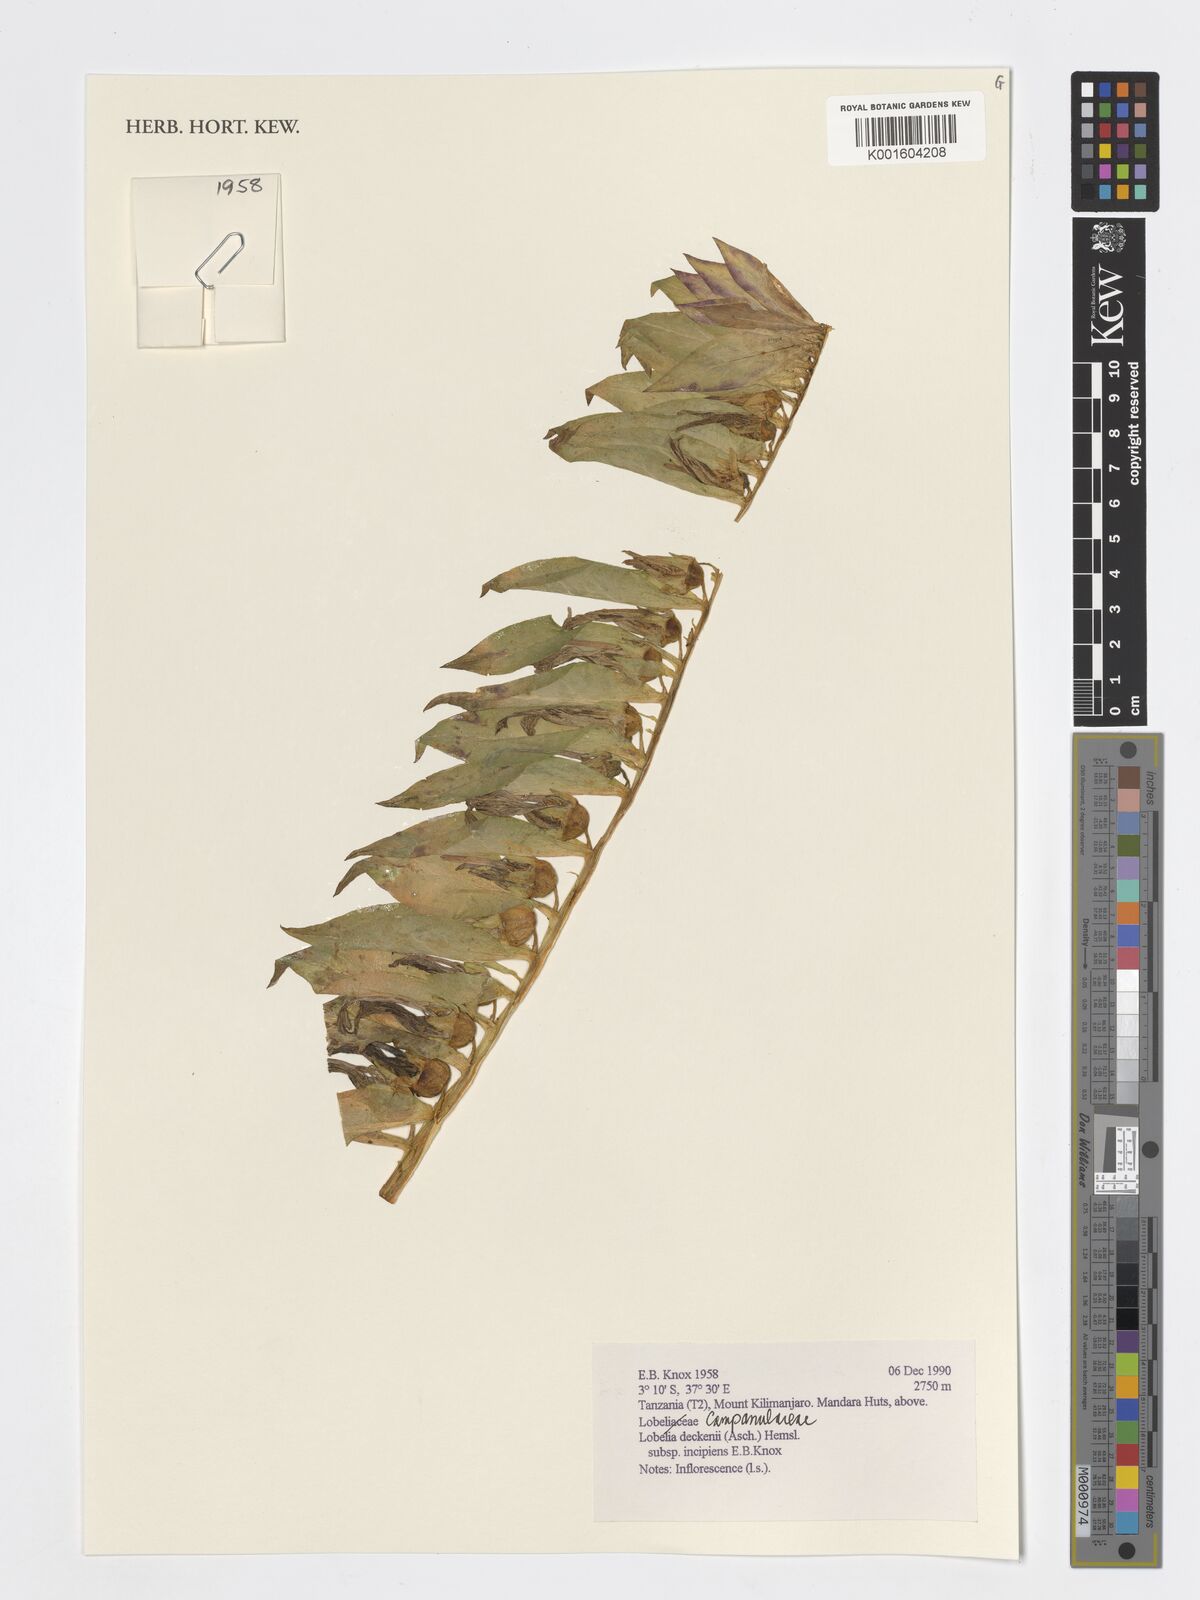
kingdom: Plantae
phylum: Tracheophyta
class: Magnoliopsida
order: Asterales
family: Campanulaceae
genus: Lobelia
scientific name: Lobelia deckenii
